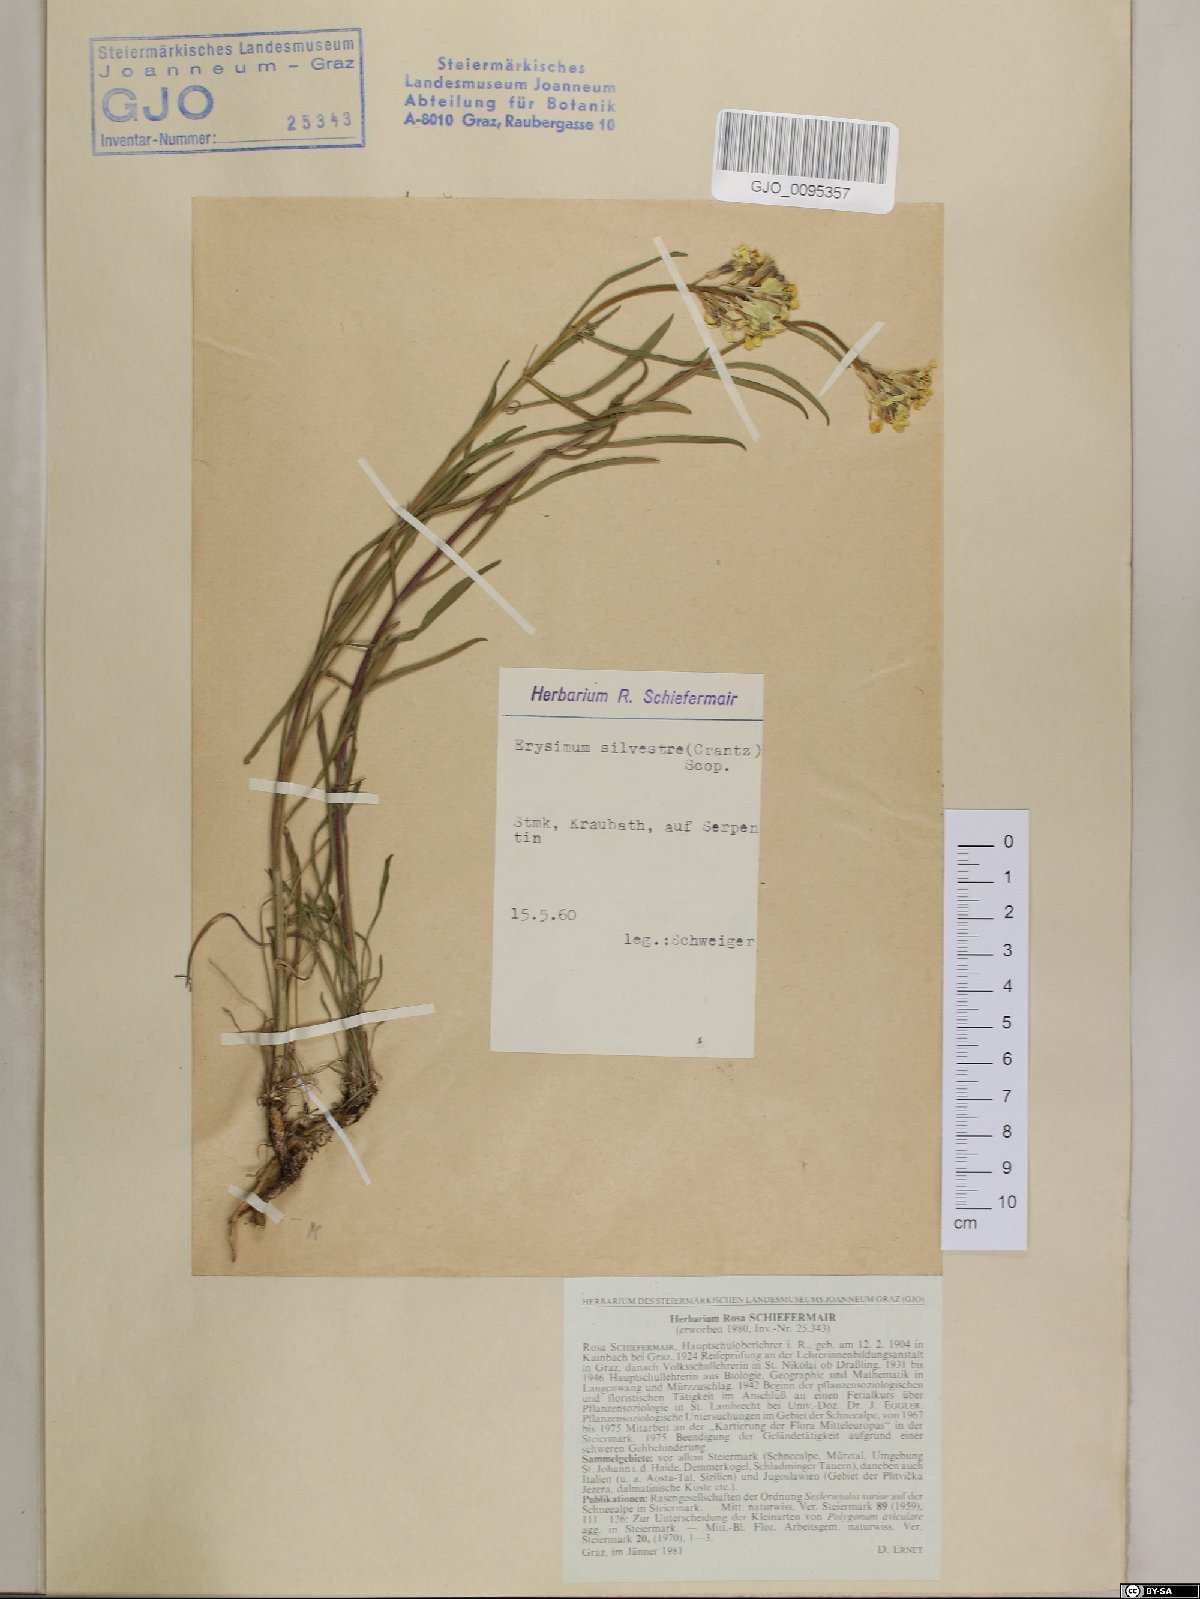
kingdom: Plantae
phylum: Tracheophyta
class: Magnoliopsida
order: Brassicales
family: Brassicaceae
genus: Erysimum
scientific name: Erysimum sylvestre
